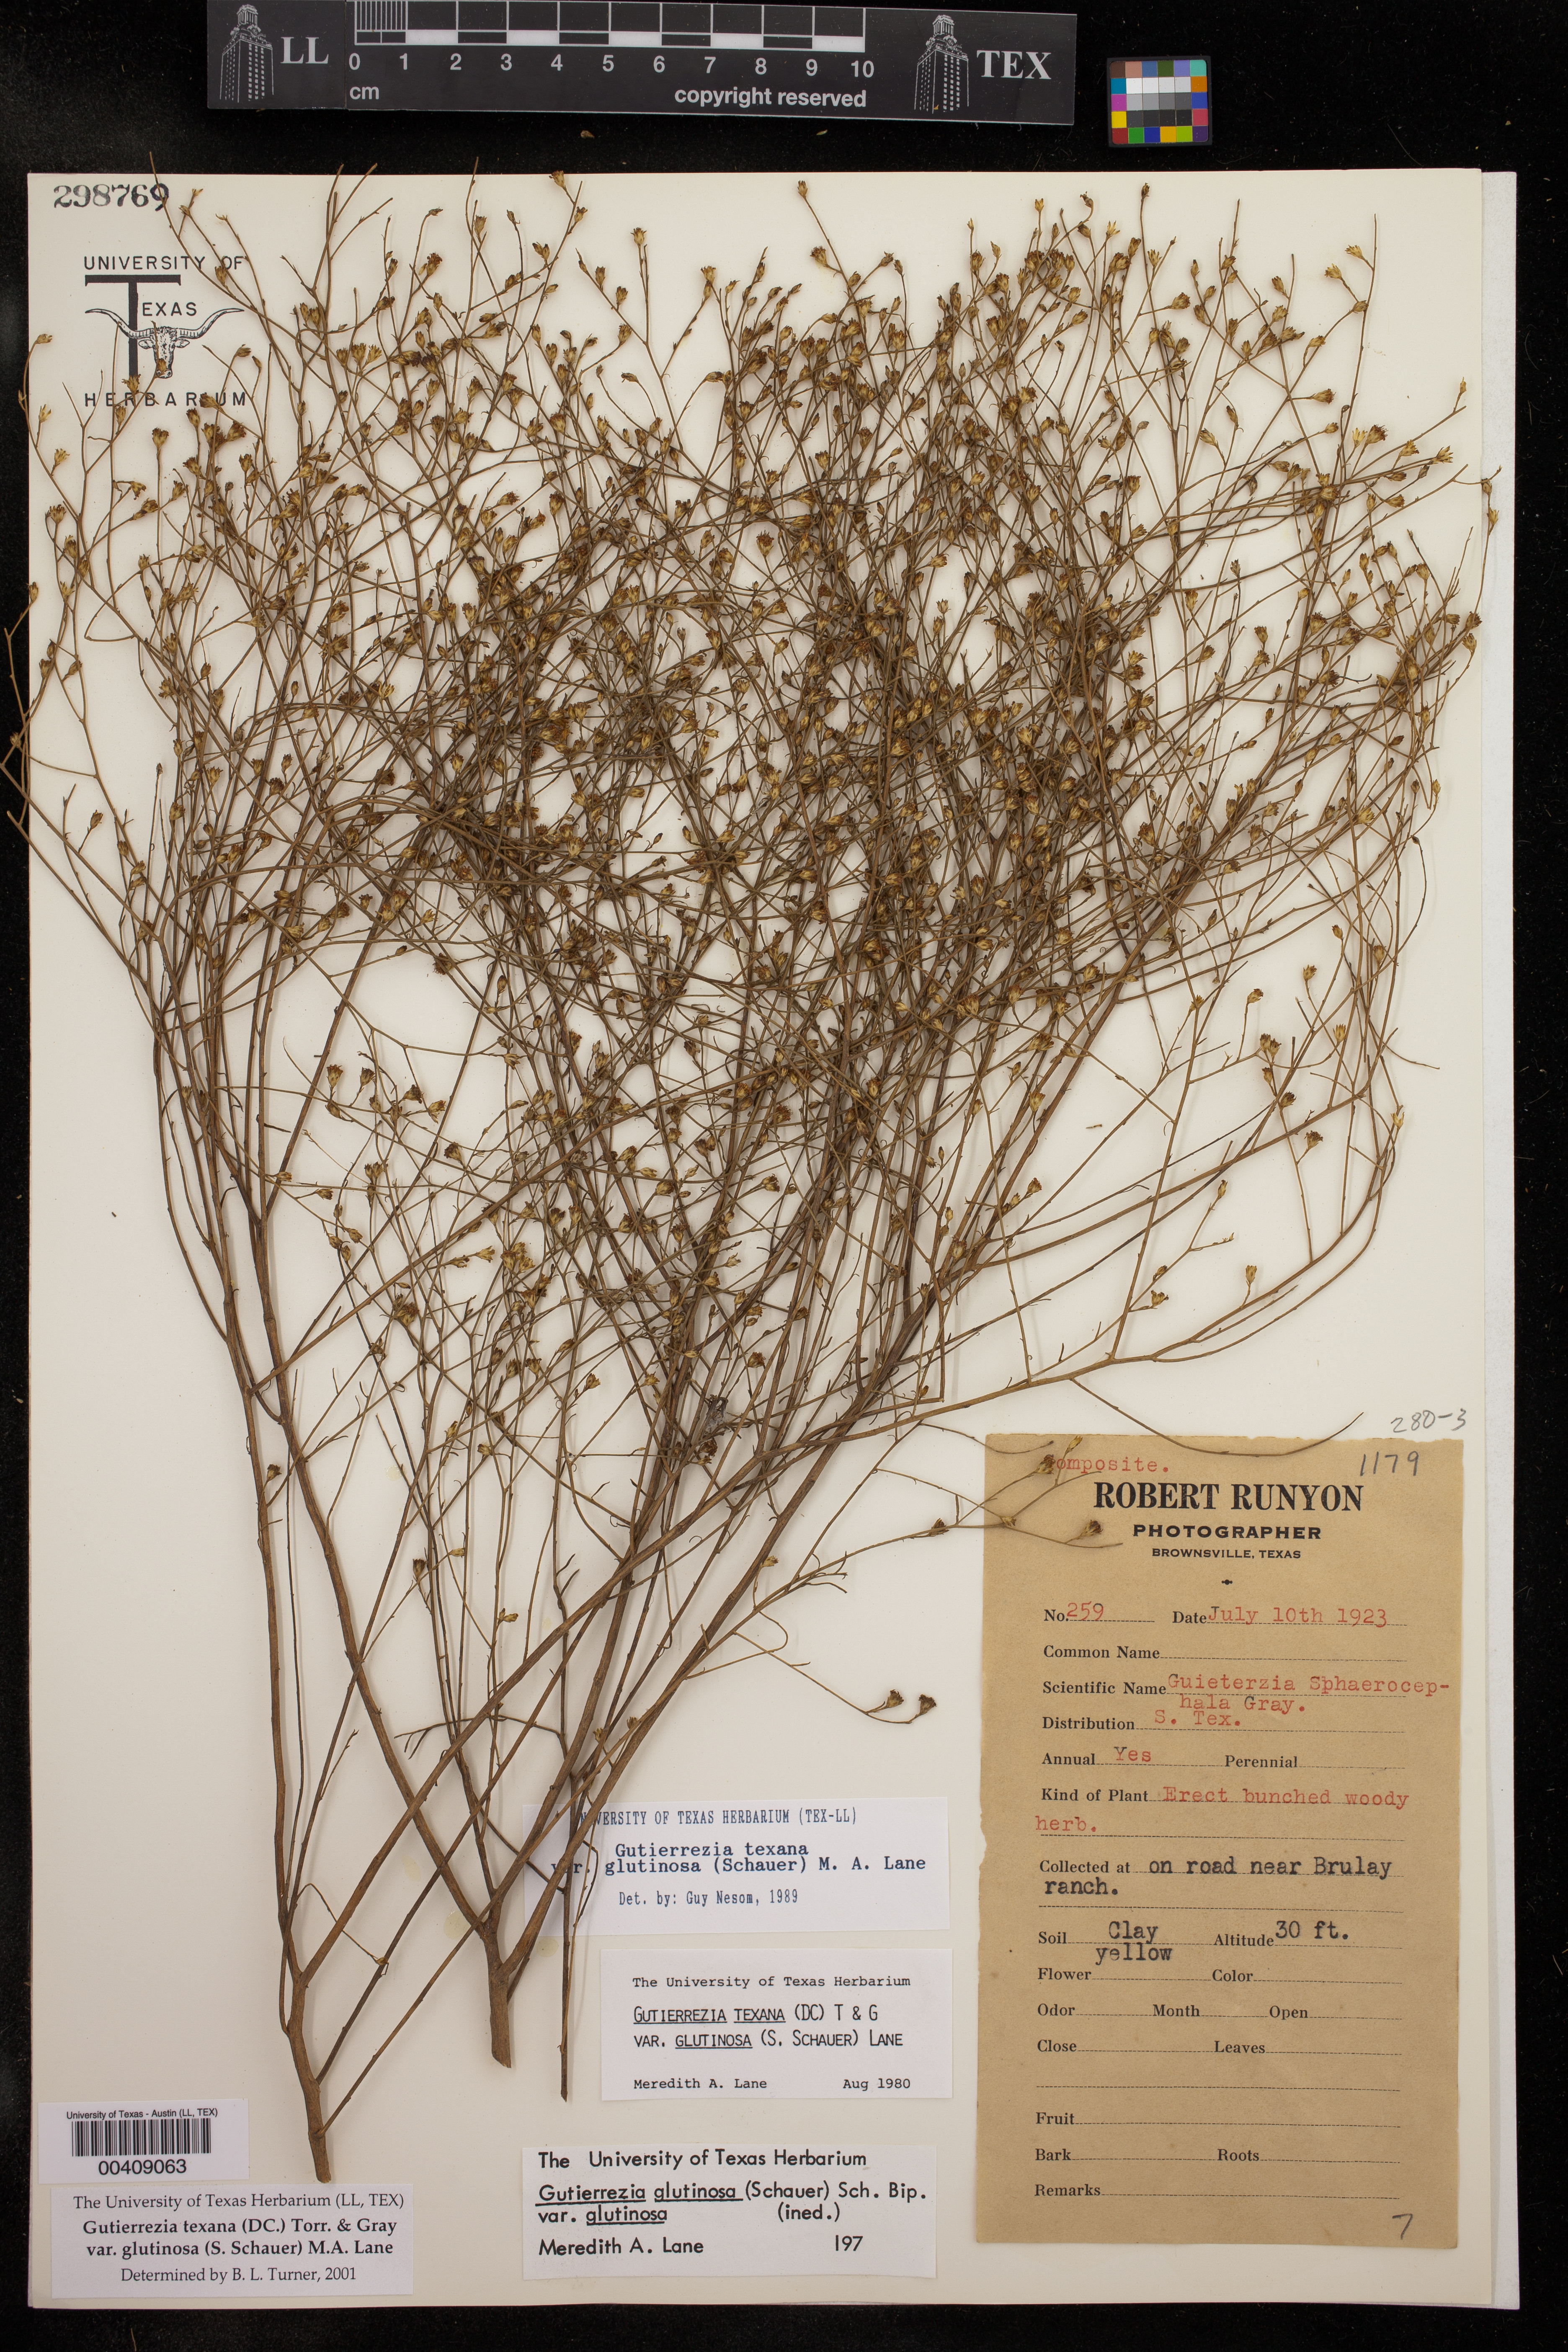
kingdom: Plantae
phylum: Tracheophyta
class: Magnoliopsida
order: Asterales
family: Asteraceae
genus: Gutierrezia
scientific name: Gutierrezia texana
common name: Texas snakeweed
